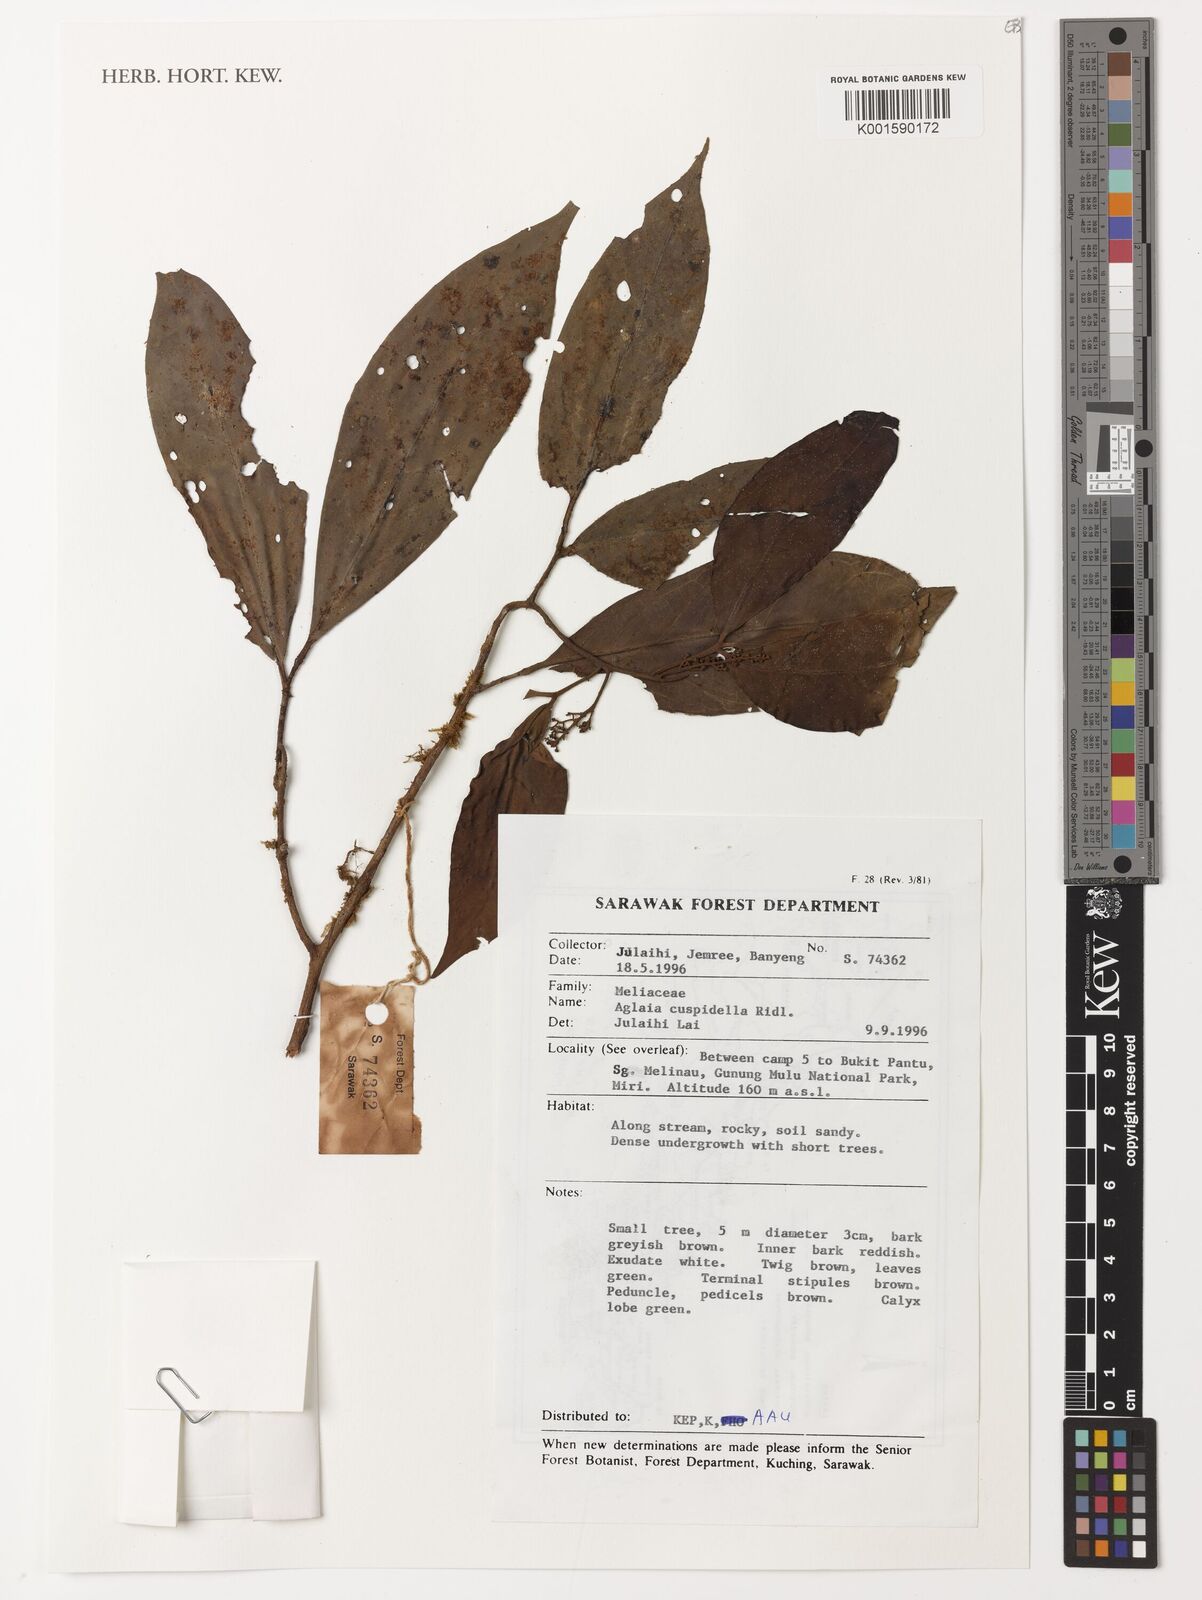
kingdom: Plantae
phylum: Tracheophyta
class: Magnoliopsida
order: Sapindales
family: Meliaceae
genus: Aglaia
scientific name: Aglaia odoratissima
